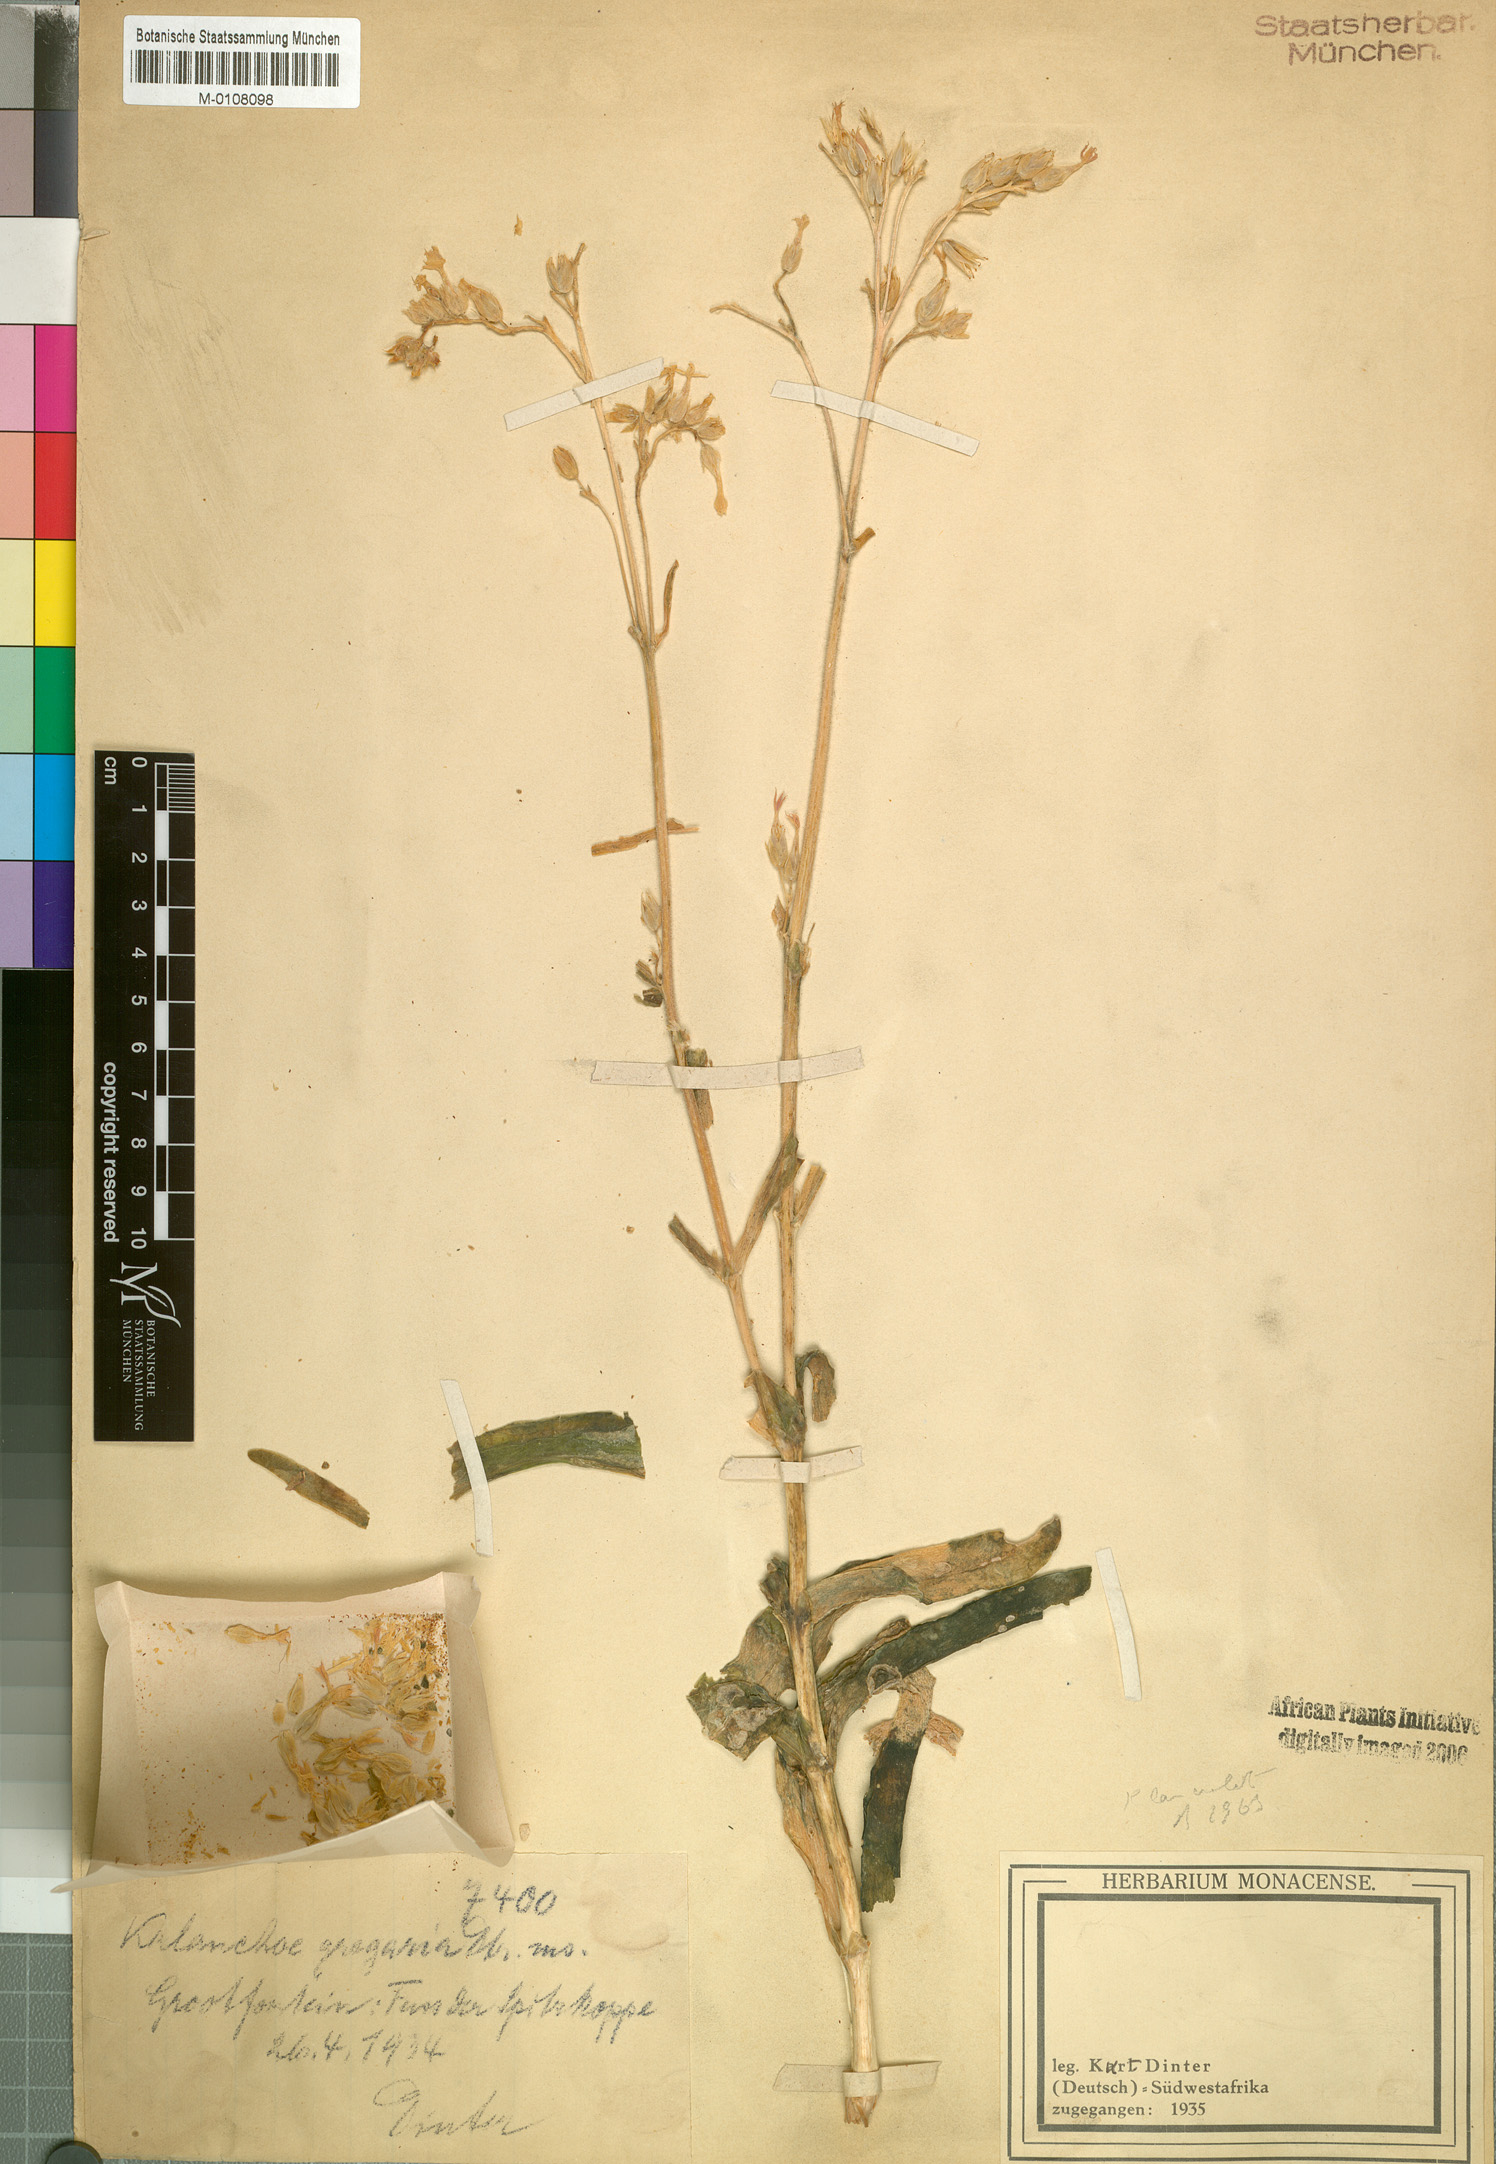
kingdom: Plantae
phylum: Tracheophyta
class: Magnoliopsida
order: Saxifragales
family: Crassulaceae
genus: Kalanchoe
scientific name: Kalanchoe lanceolata
